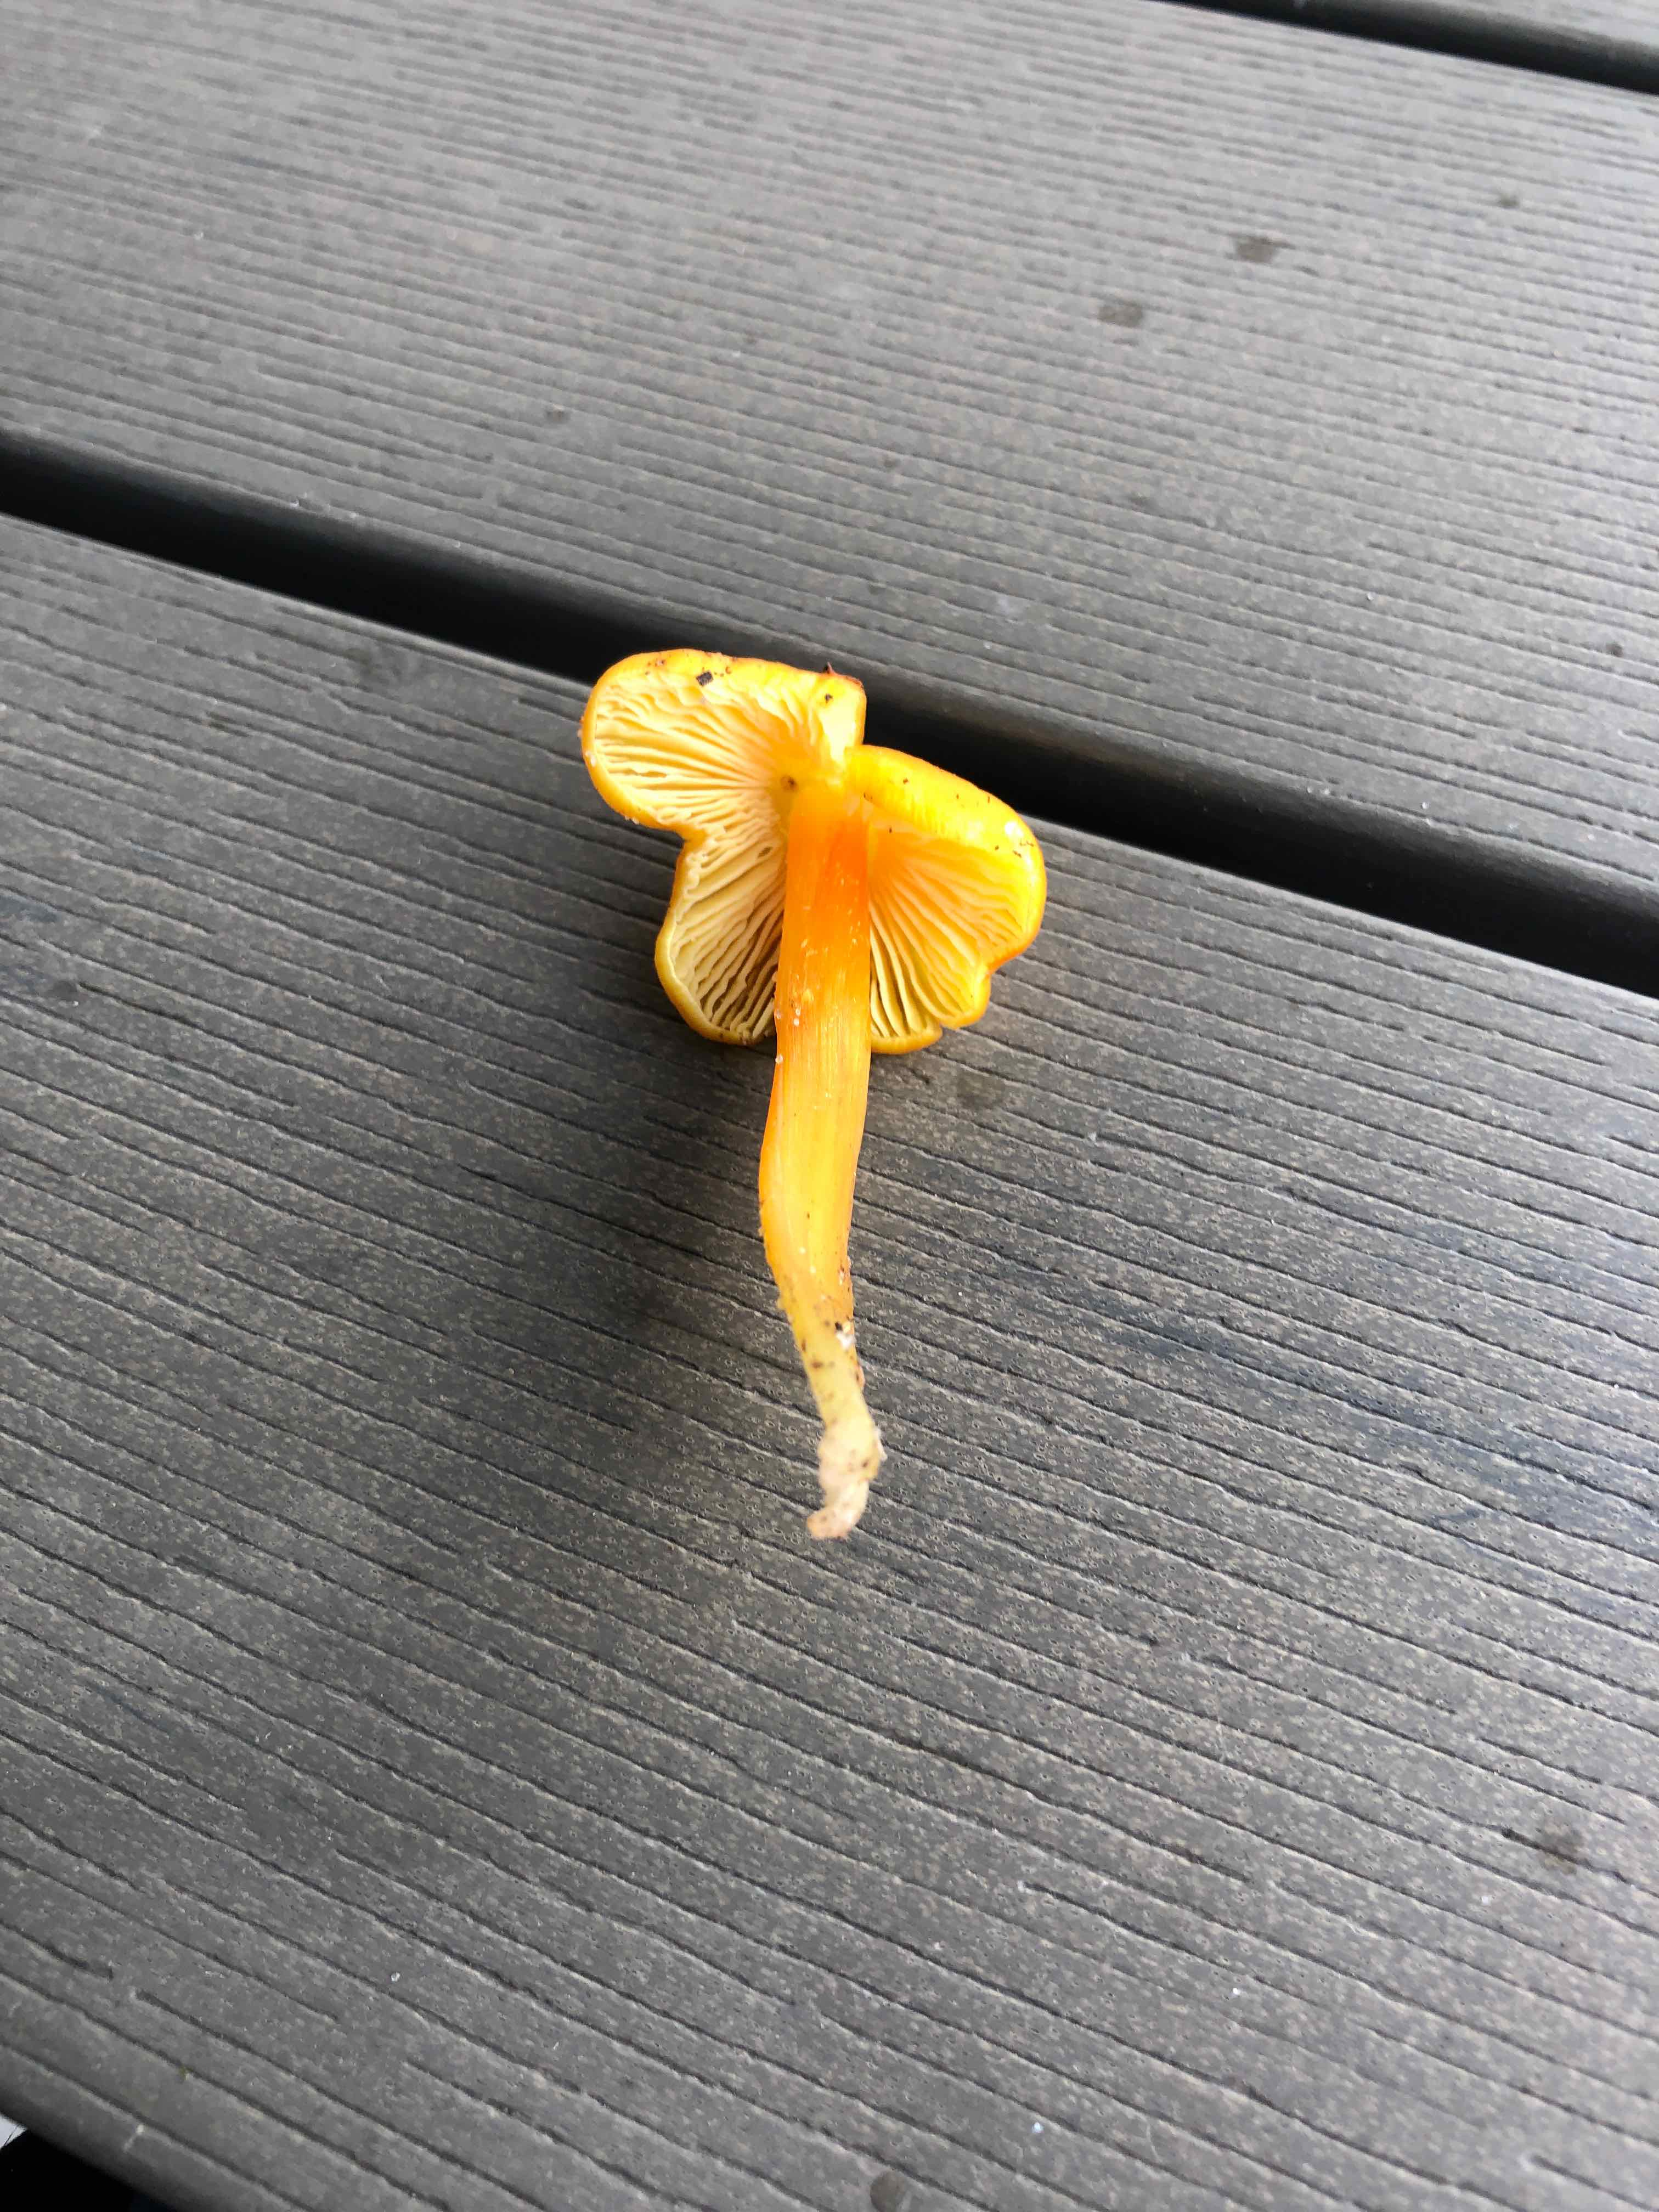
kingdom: Fungi
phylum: Basidiomycota
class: Agaricomycetes
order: Agaricales
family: Hygrophoraceae
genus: Hygrocybe
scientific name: Hygrocybe
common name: vokshat
